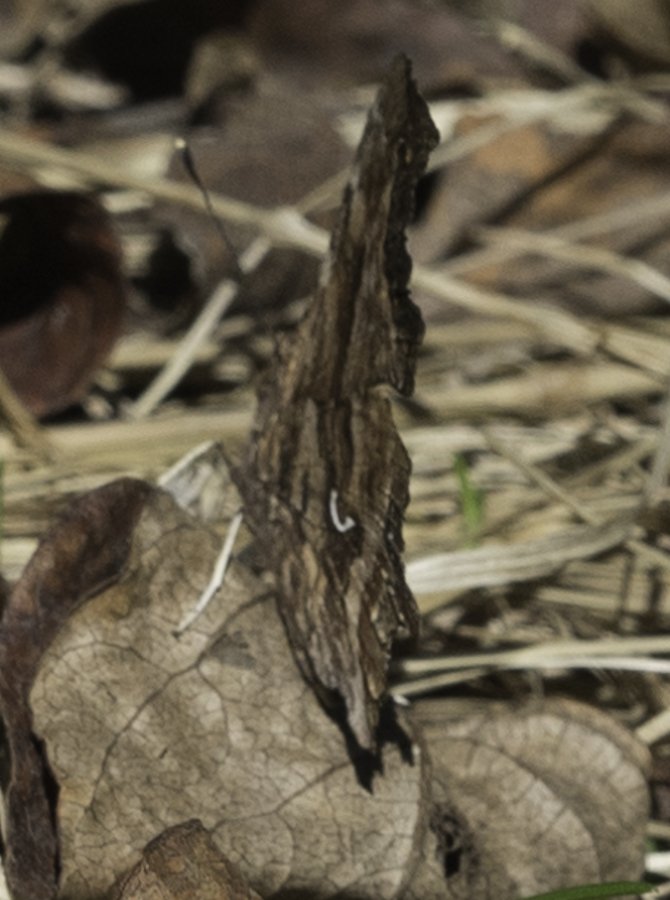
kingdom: Animalia
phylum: Arthropoda
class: Insecta
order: Lepidoptera
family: Nymphalidae
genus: Polygonia
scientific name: Polygonia satyrus
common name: Satyr Comma
